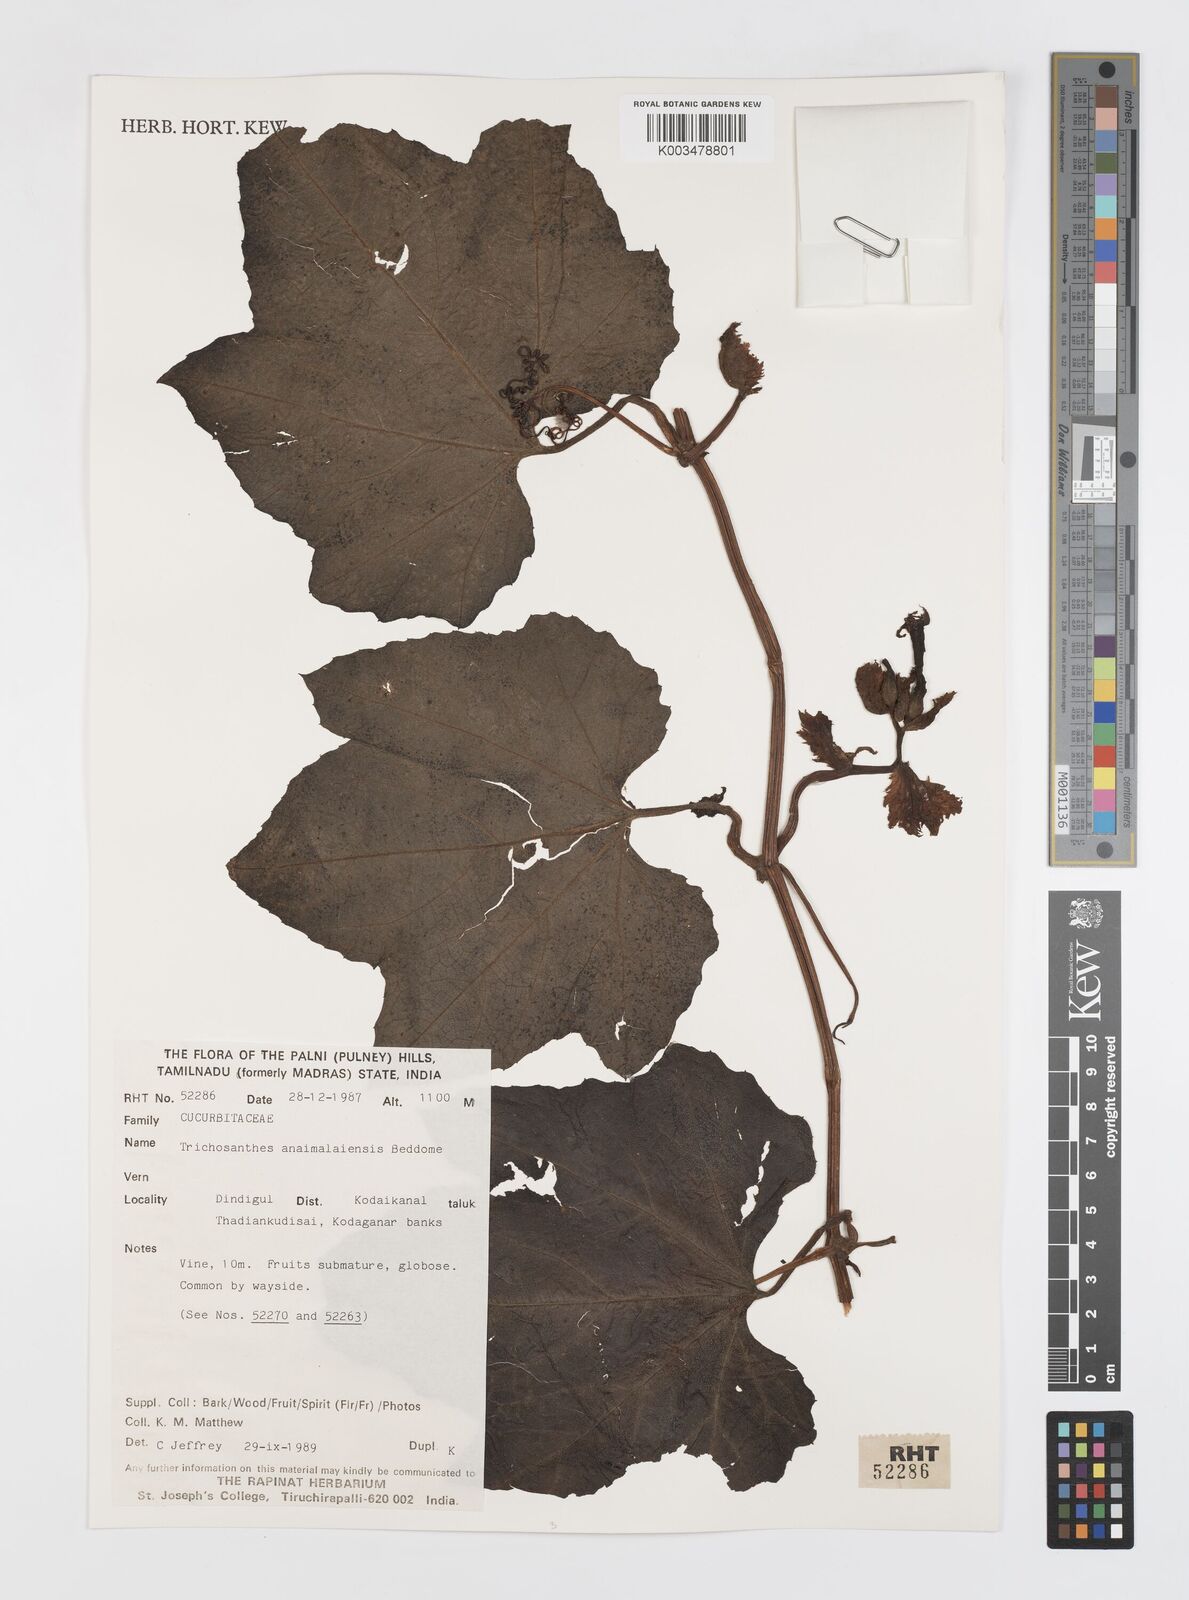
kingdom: Plantae
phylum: Tracheophyta
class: Magnoliopsida
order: Cucurbitales
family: Cucurbitaceae
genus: Trichosanthes
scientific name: Trichosanthes anaimalaiensis
